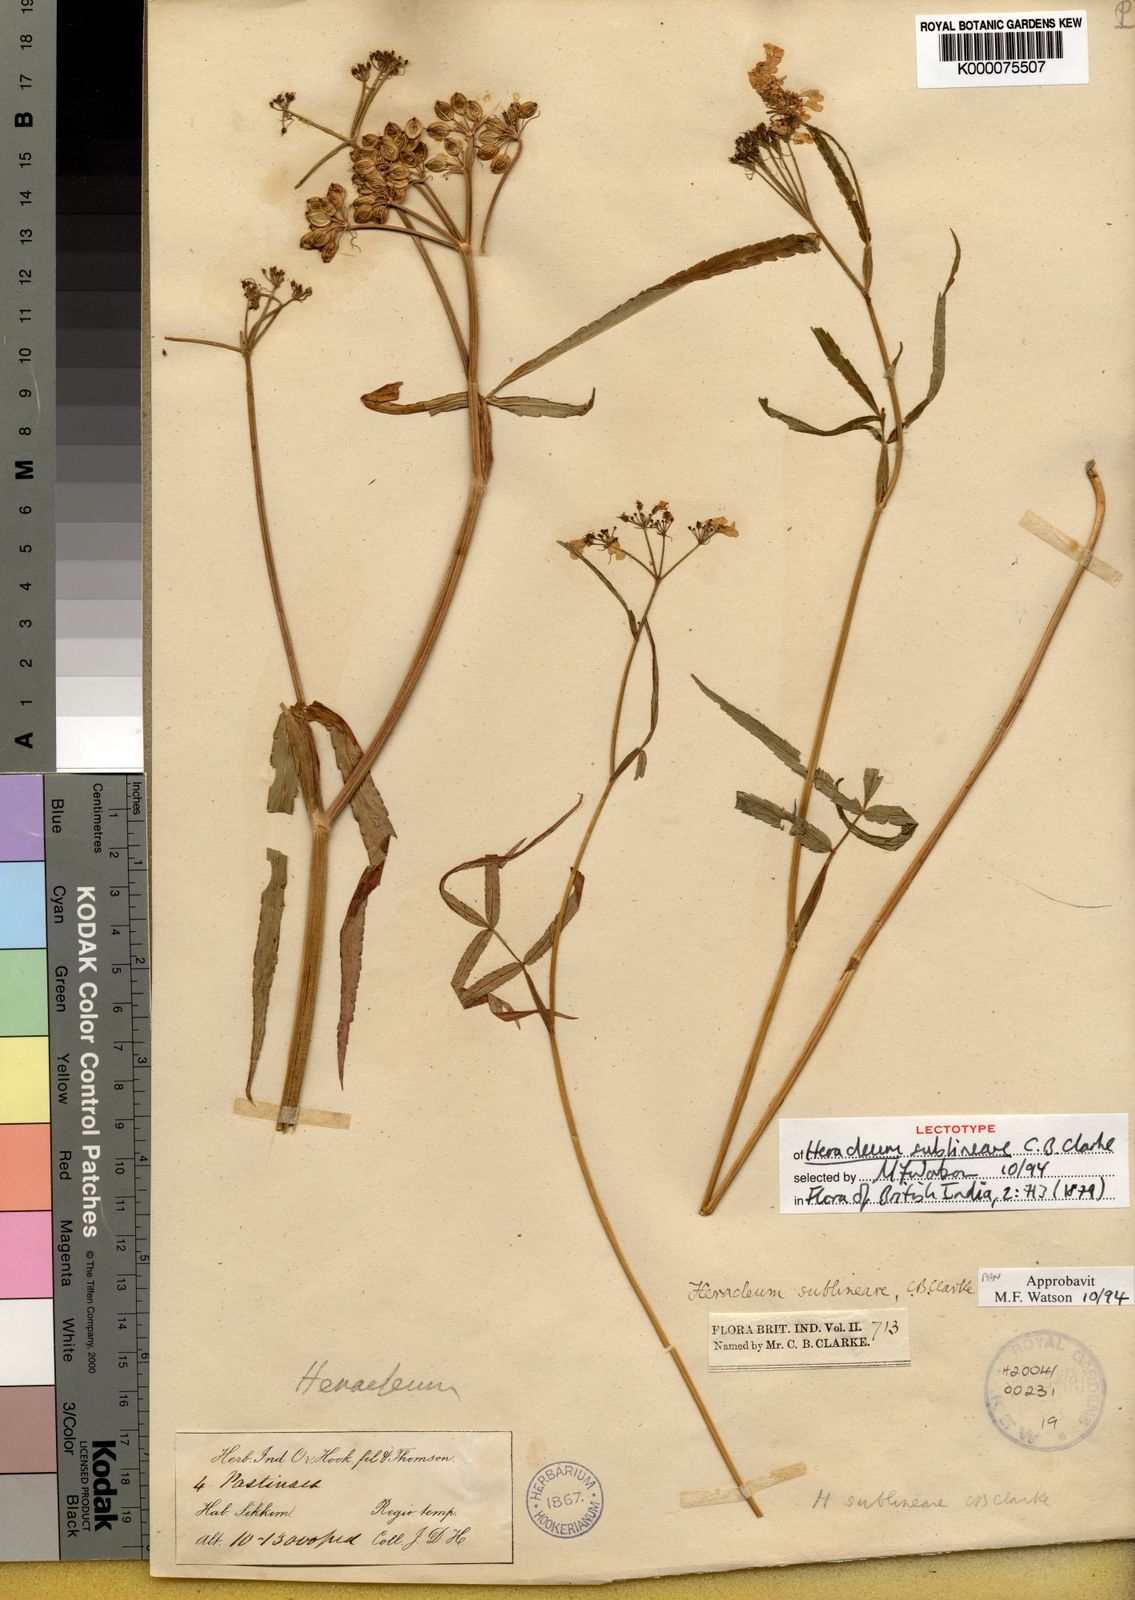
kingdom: Plantae
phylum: Tracheophyta
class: Magnoliopsida
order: Apiales
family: Apiaceae
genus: Tetrataenium
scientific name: Tetrataenium sublineare
